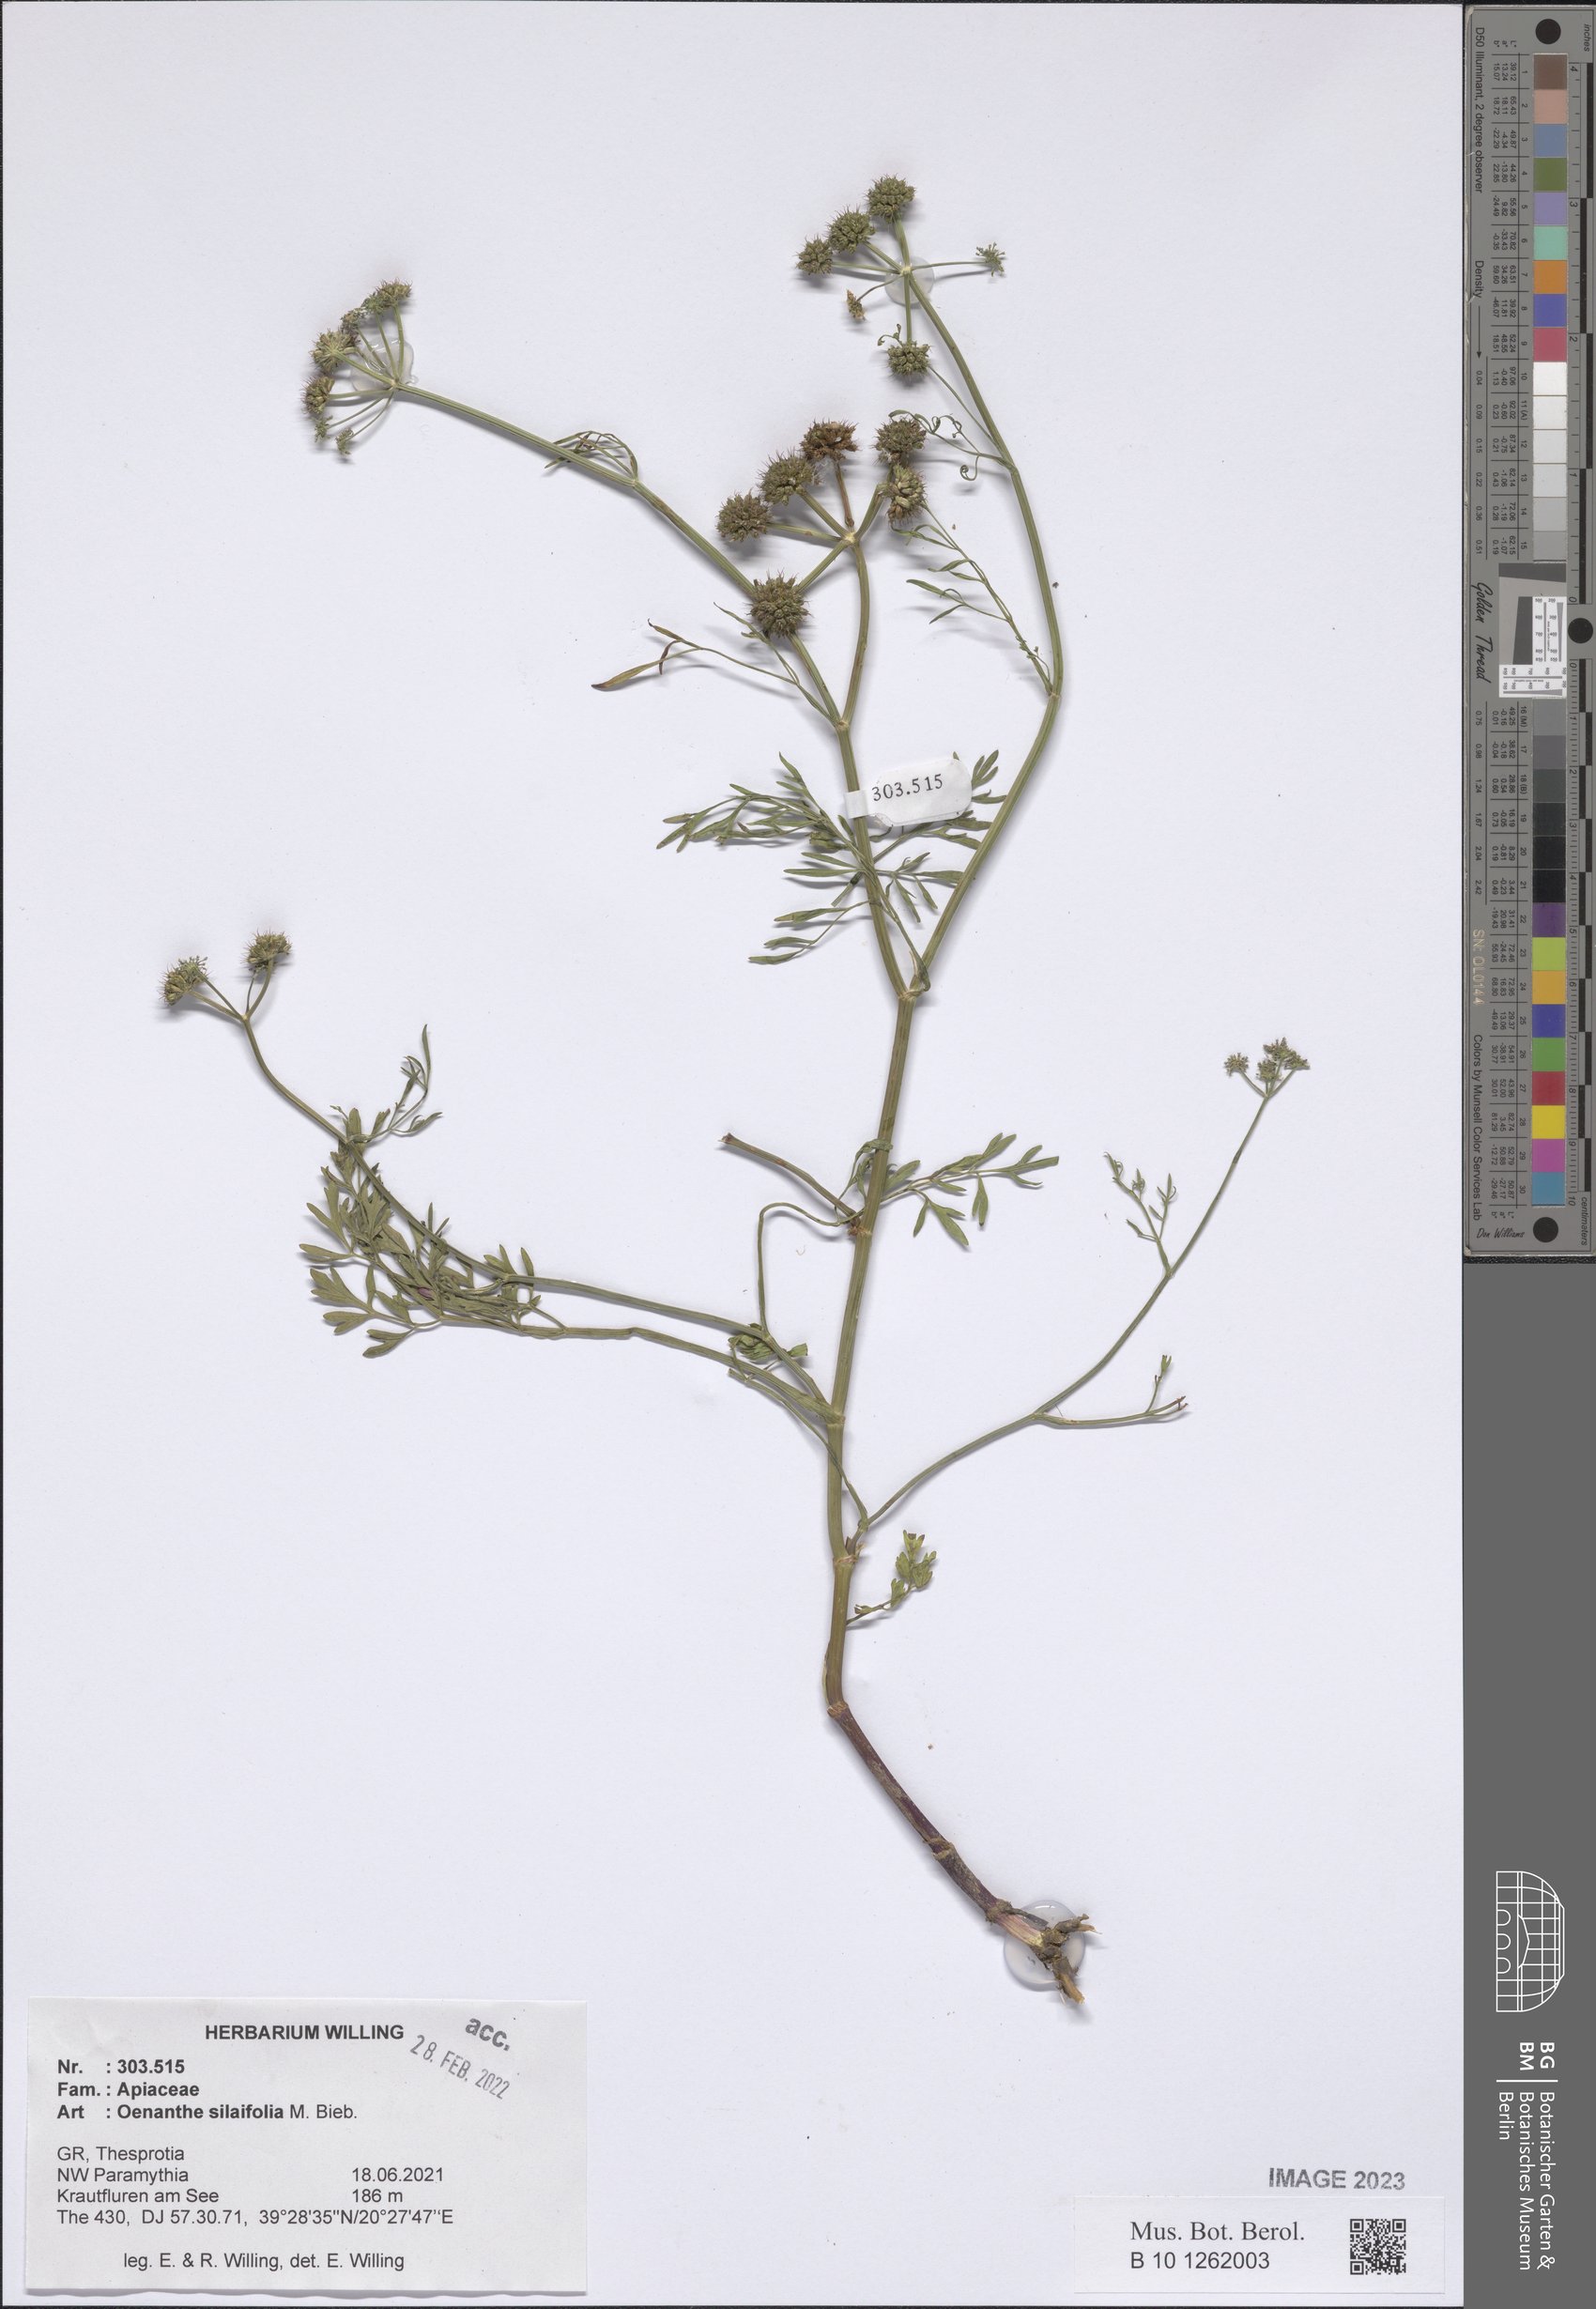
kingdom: Plantae
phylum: Tracheophyta
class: Magnoliopsida
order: Apiales
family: Apiaceae
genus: Oenanthe
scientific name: Oenanthe silaifolia
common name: Narrow-leaved water-dropwort
